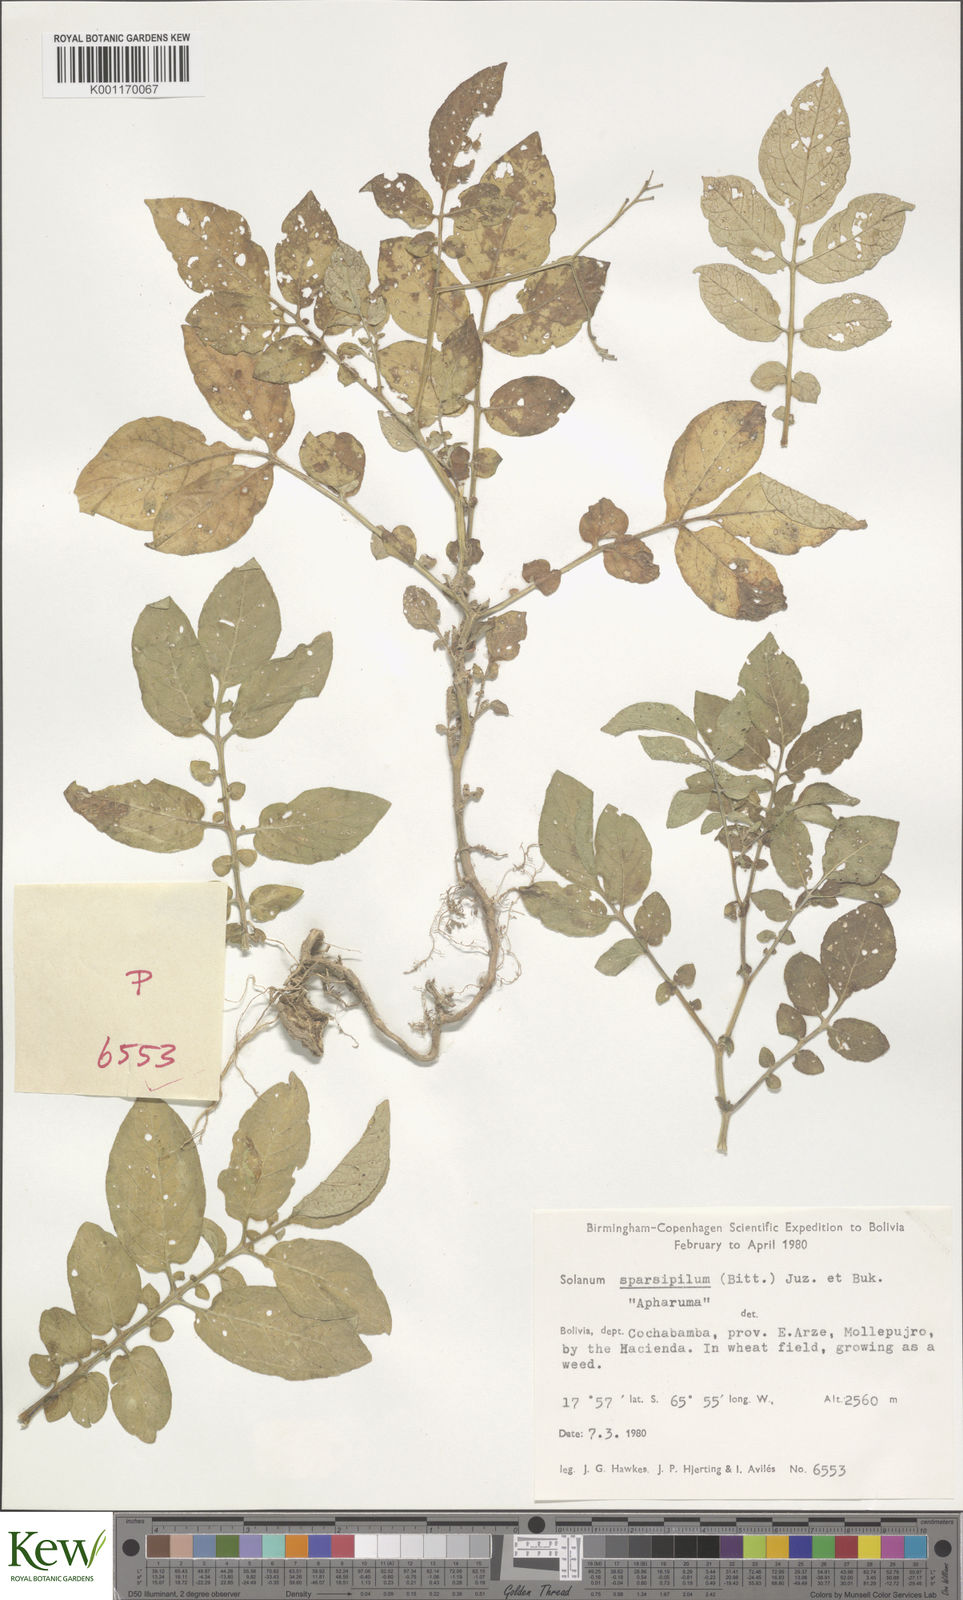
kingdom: Plantae
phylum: Tracheophyta
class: Magnoliopsida
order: Solanales
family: Solanaceae
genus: Solanum
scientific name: Solanum brevicaule
